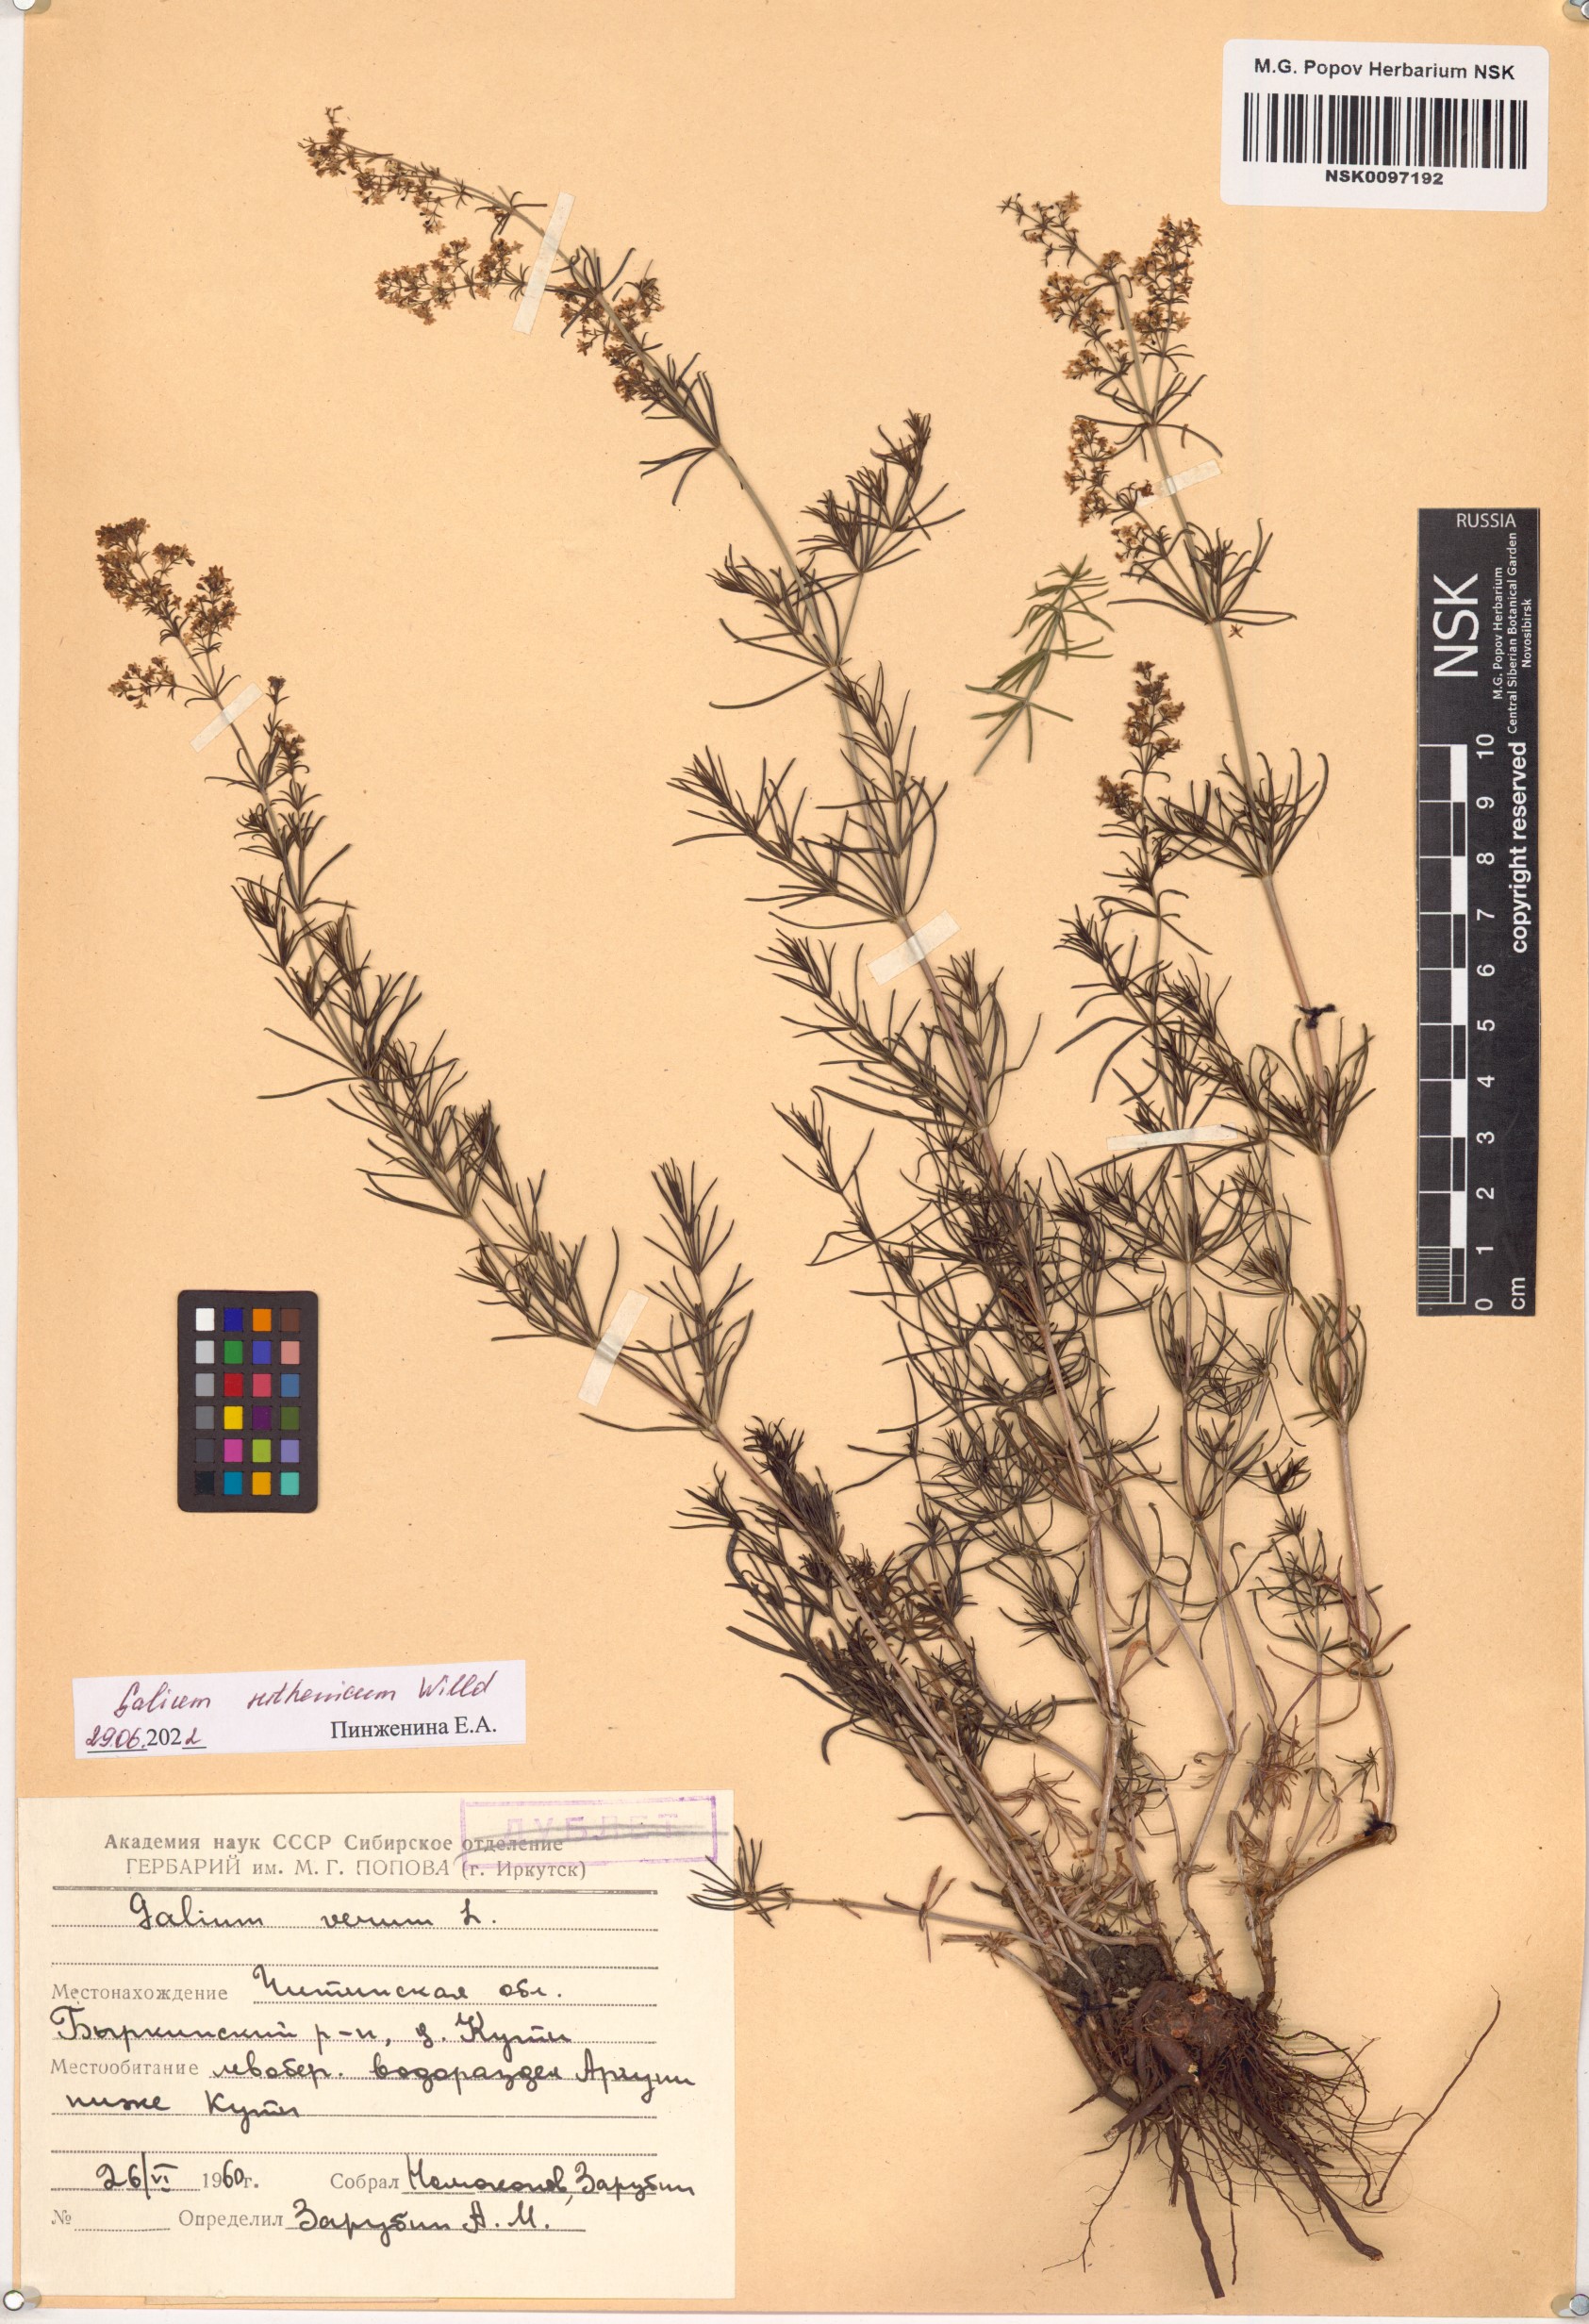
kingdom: Plantae
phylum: Tracheophyta
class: Magnoliopsida
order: Gentianales
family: Rubiaceae
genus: Galium
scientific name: Galium verum
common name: Lady's bedstraw
